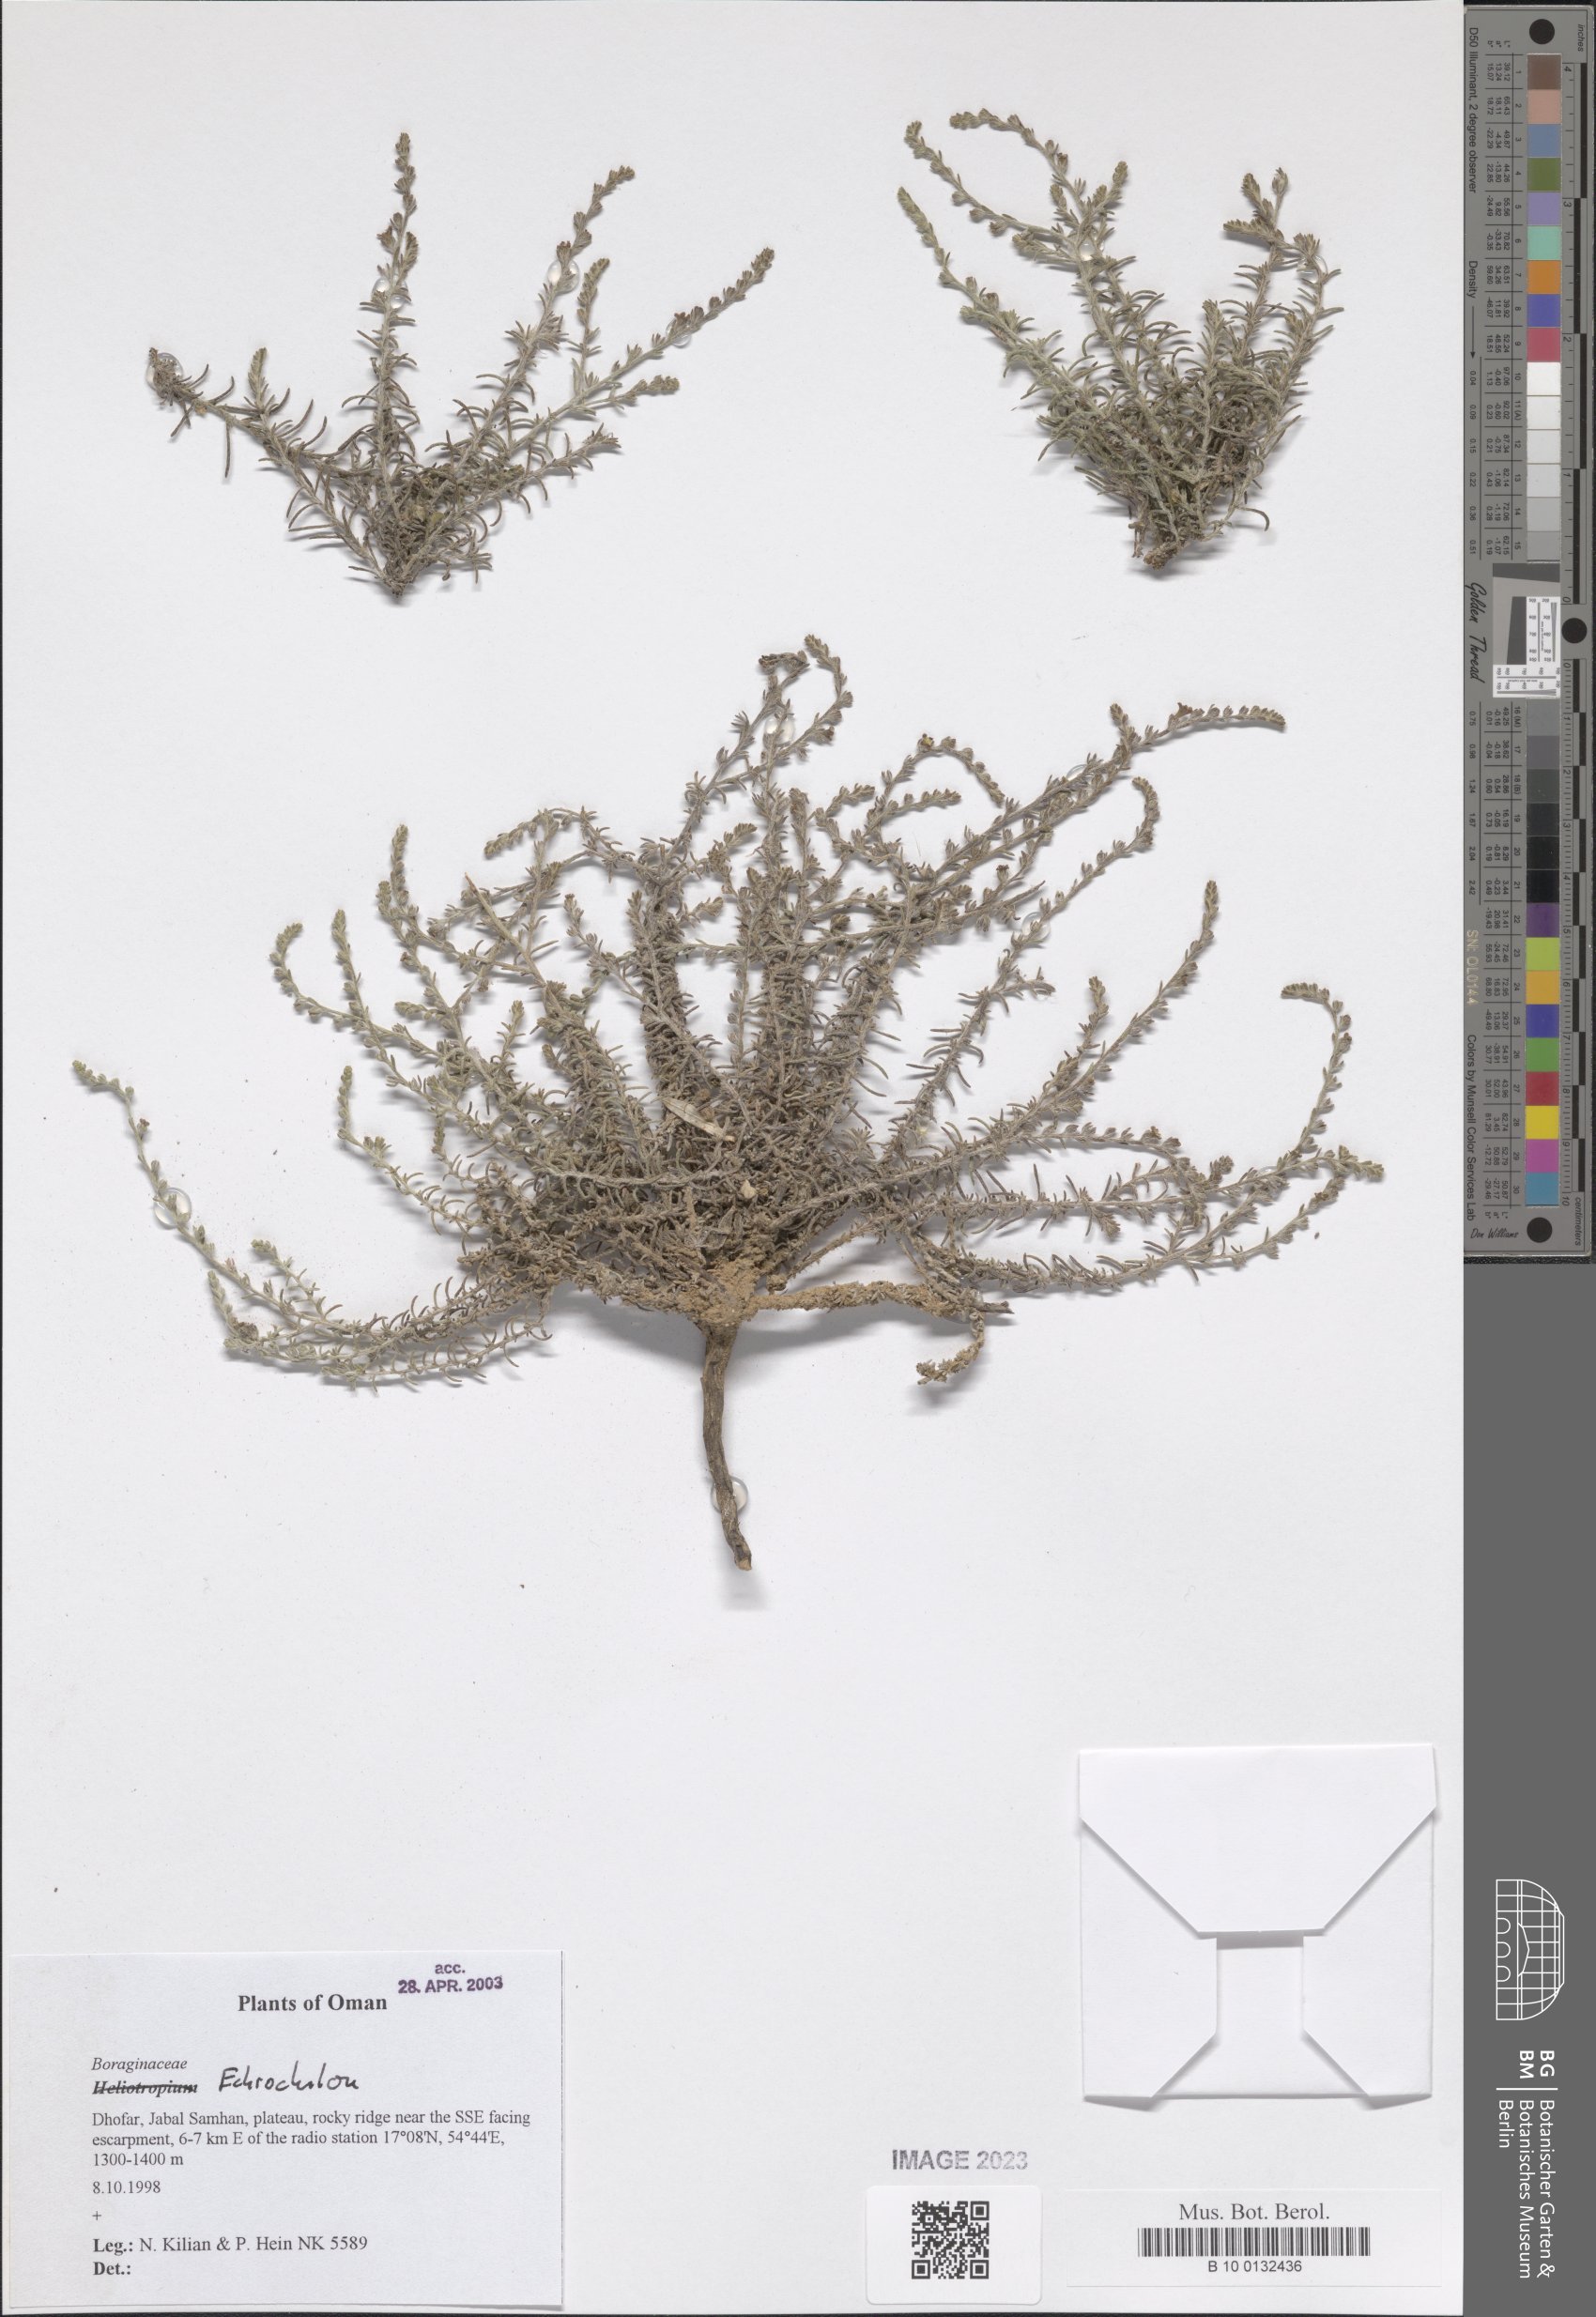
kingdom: Plantae
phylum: Tracheophyta
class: Magnoliopsida
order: Boraginales
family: Heliotropiaceae
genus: Heliotropium
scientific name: Heliotropium
